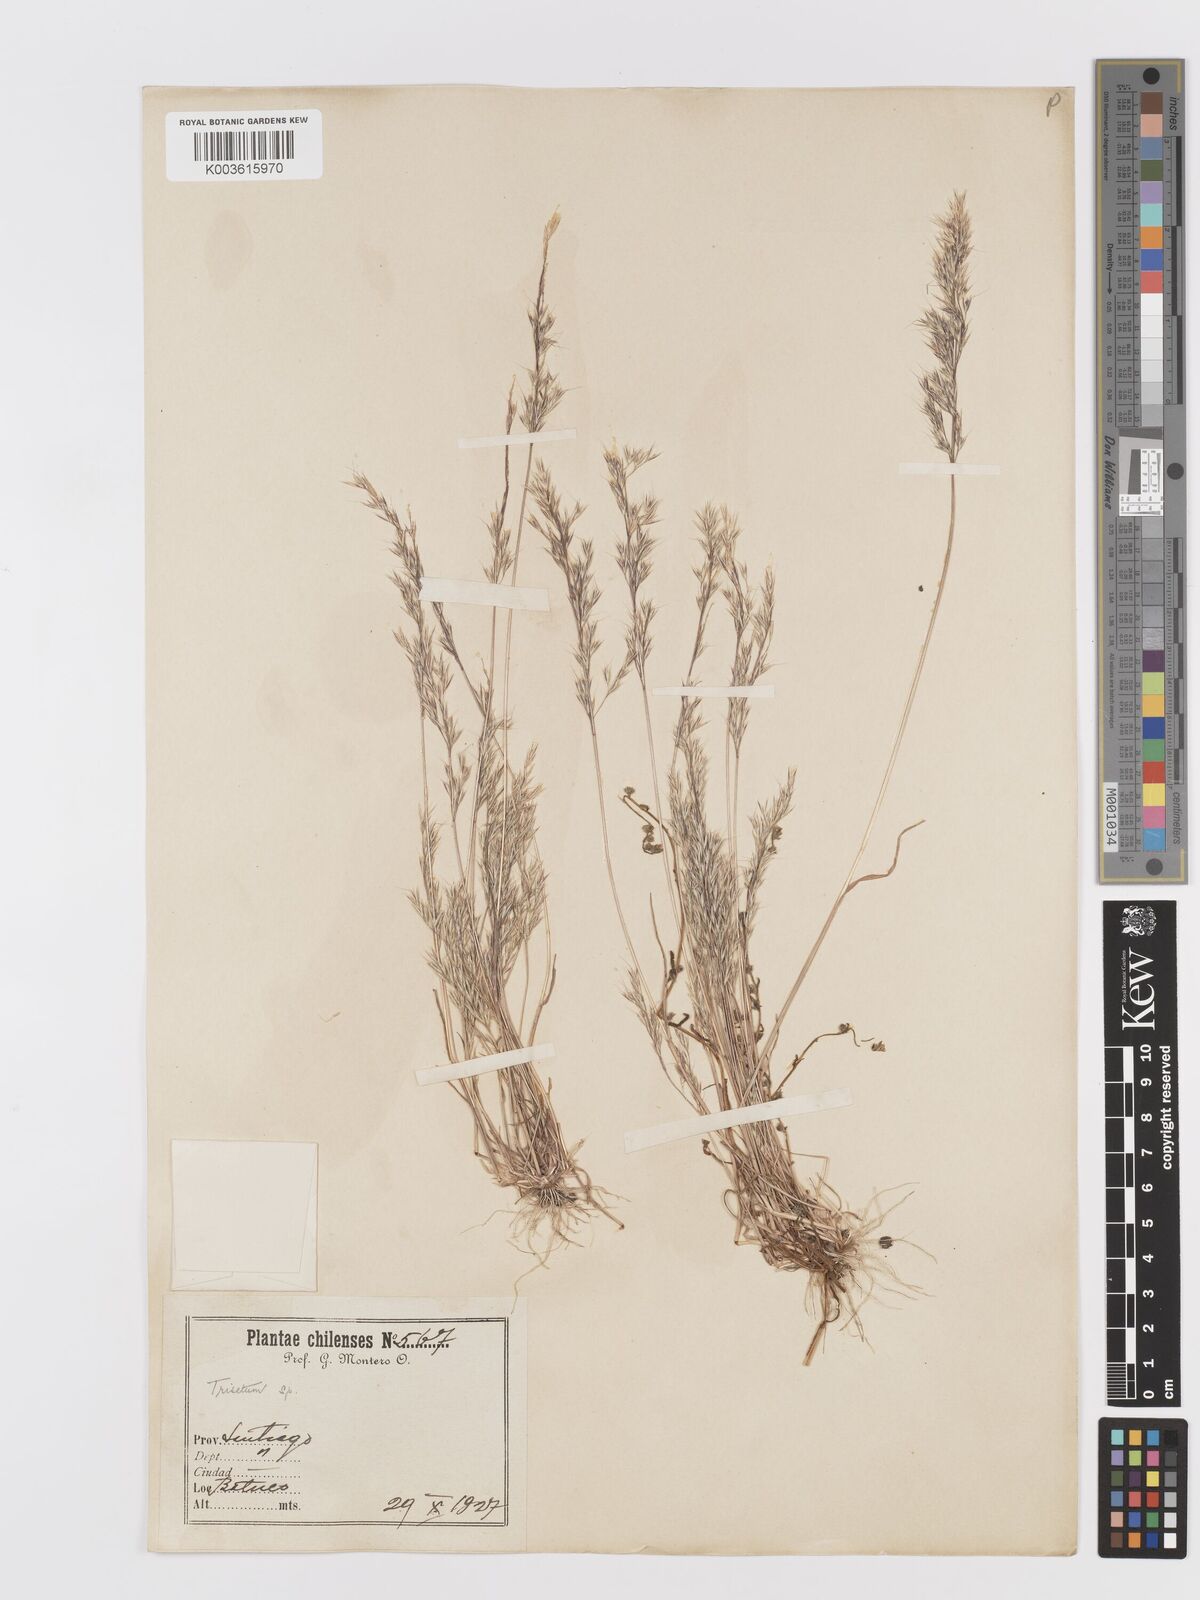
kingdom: Plantae
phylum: Tracheophyta
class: Liliopsida
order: Poales
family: Poaceae
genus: Trisetum
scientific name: Trisetum
